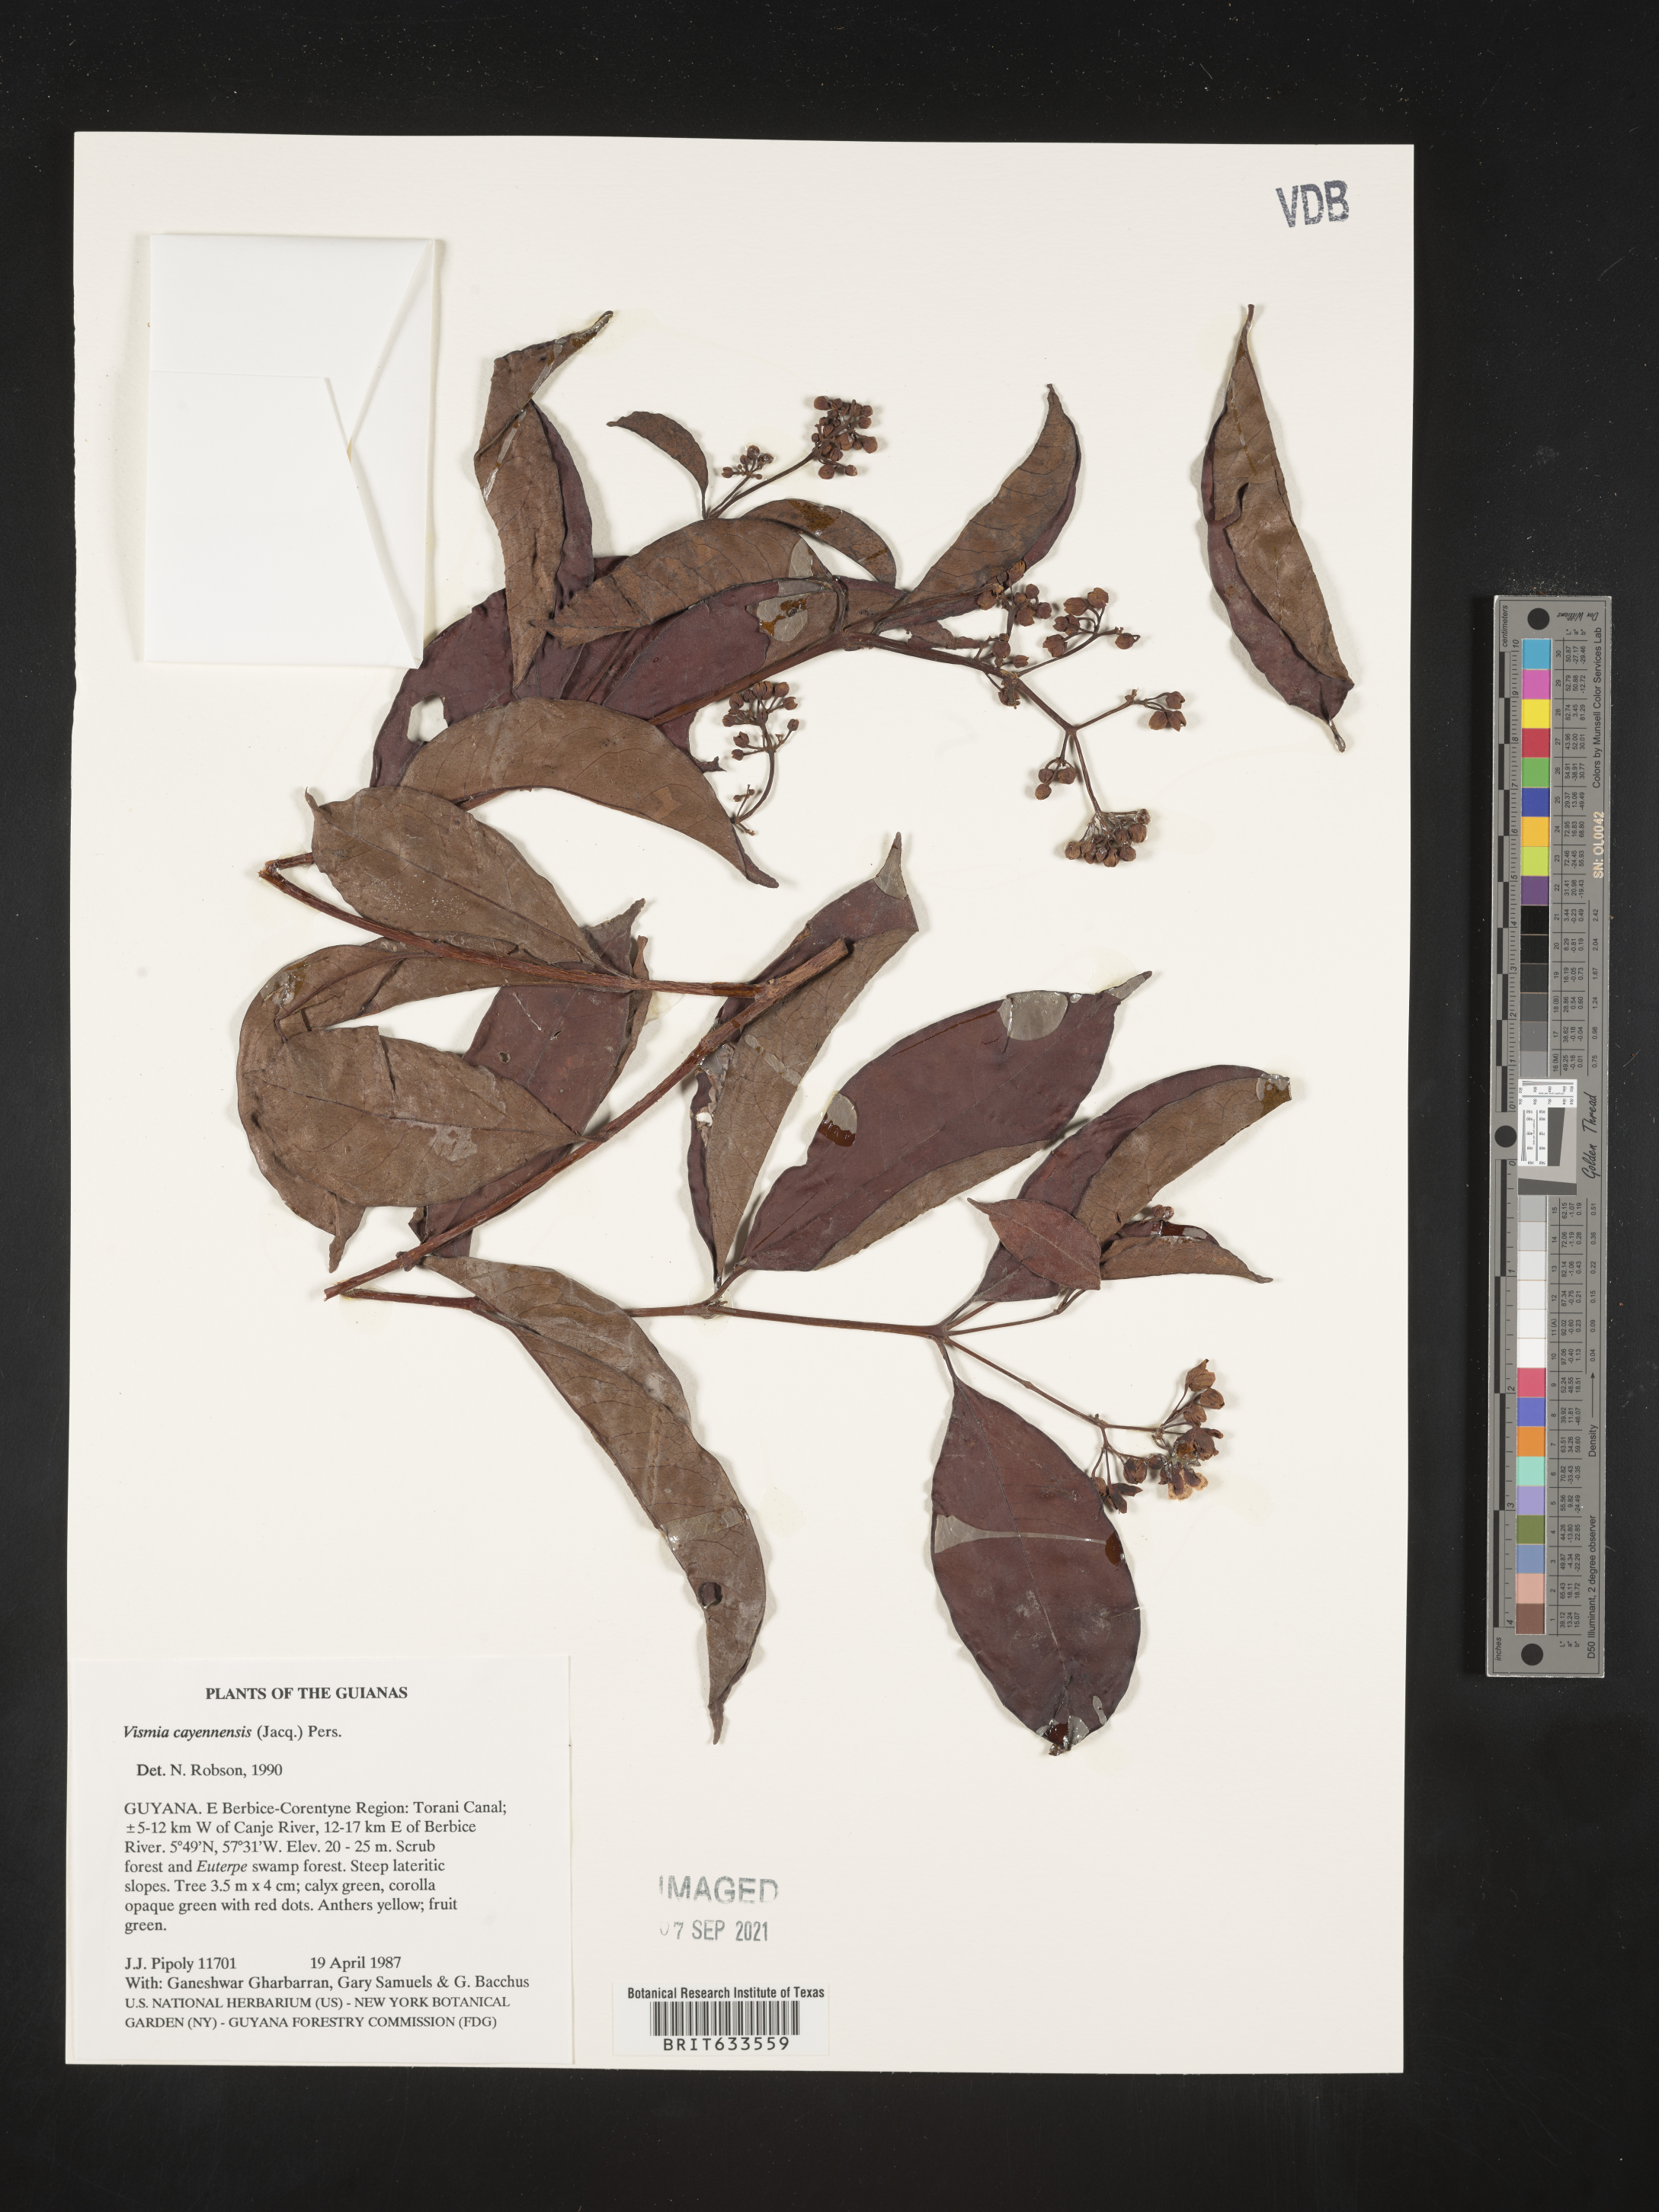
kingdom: Plantae
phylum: Tracheophyta
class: Magnoliopsida
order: Malpighiales
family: Hypericaceae
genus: Vismia
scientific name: Vismia
